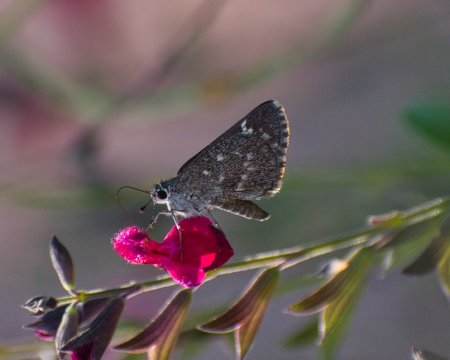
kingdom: Animalia
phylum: Arthropoda
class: Insecta
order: Lepidoptera
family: Hesperiidae
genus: Mastor
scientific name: Mastor aenus
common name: Bronze Roadside-Skipper
